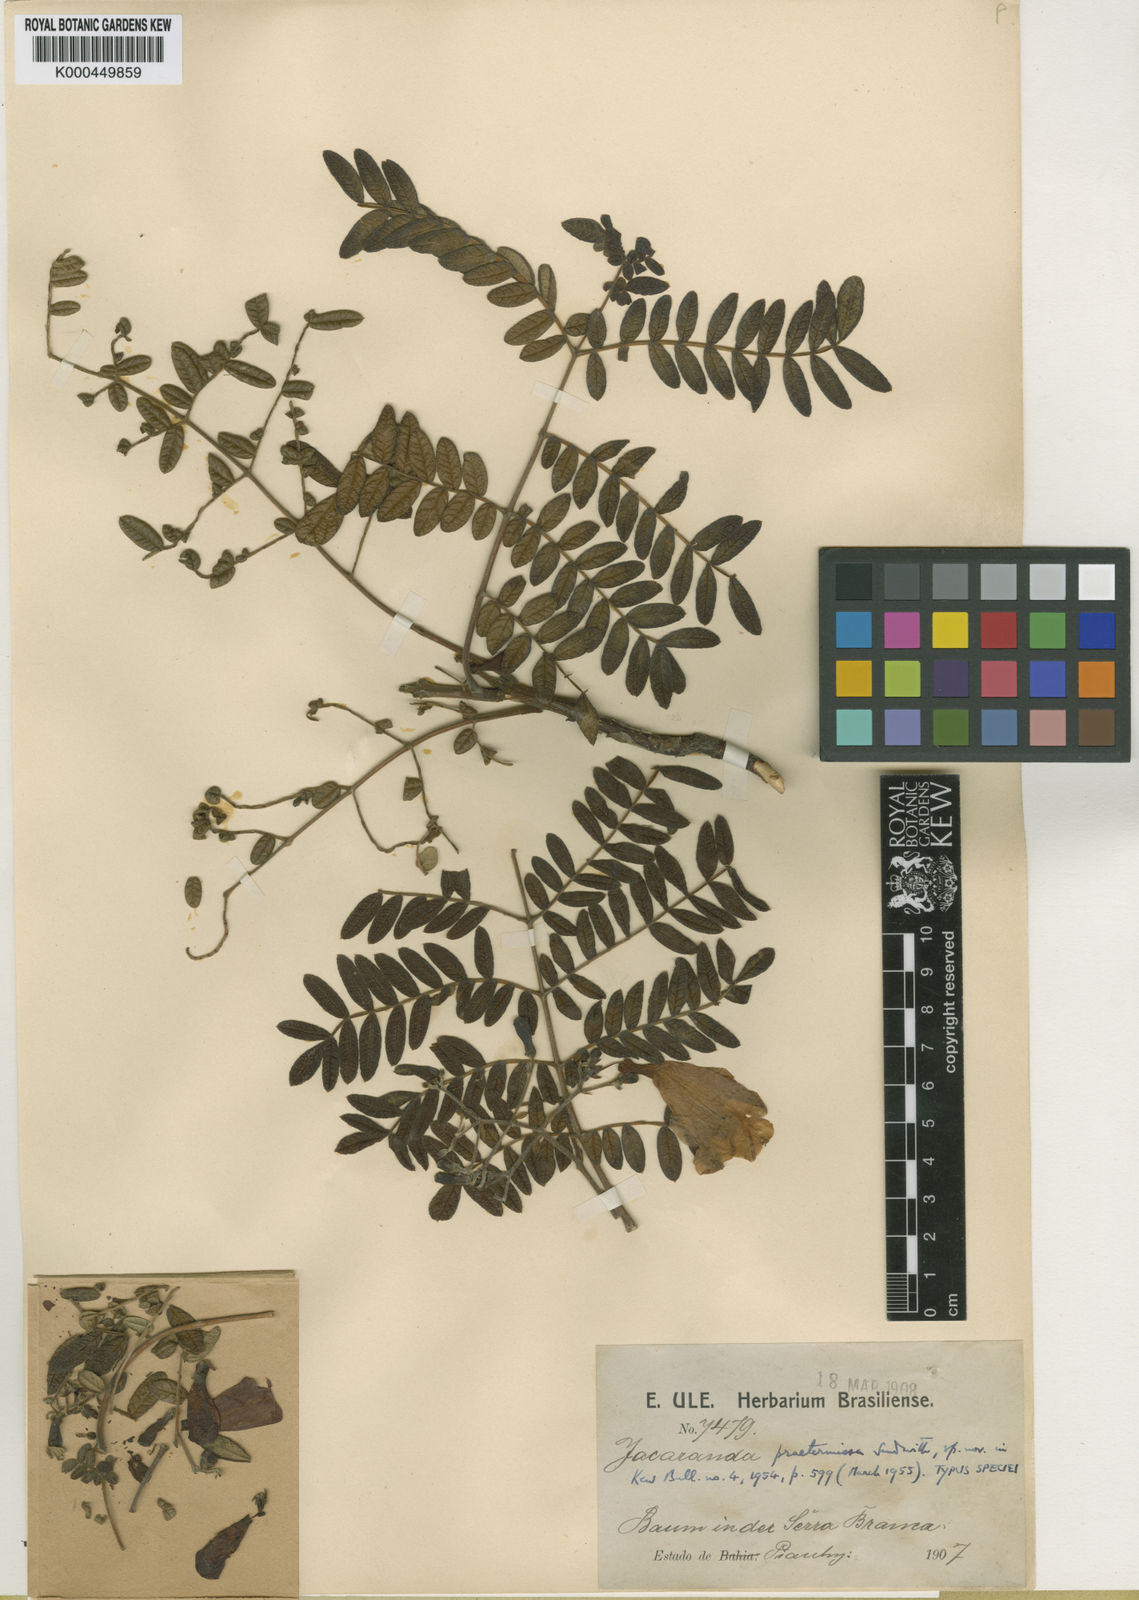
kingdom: Plantae
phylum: Tracheophyta
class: Magnoliopsida
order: Lamiales
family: Bignoniaceae
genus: Jacaranda
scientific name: Jacaranda praetermissa
